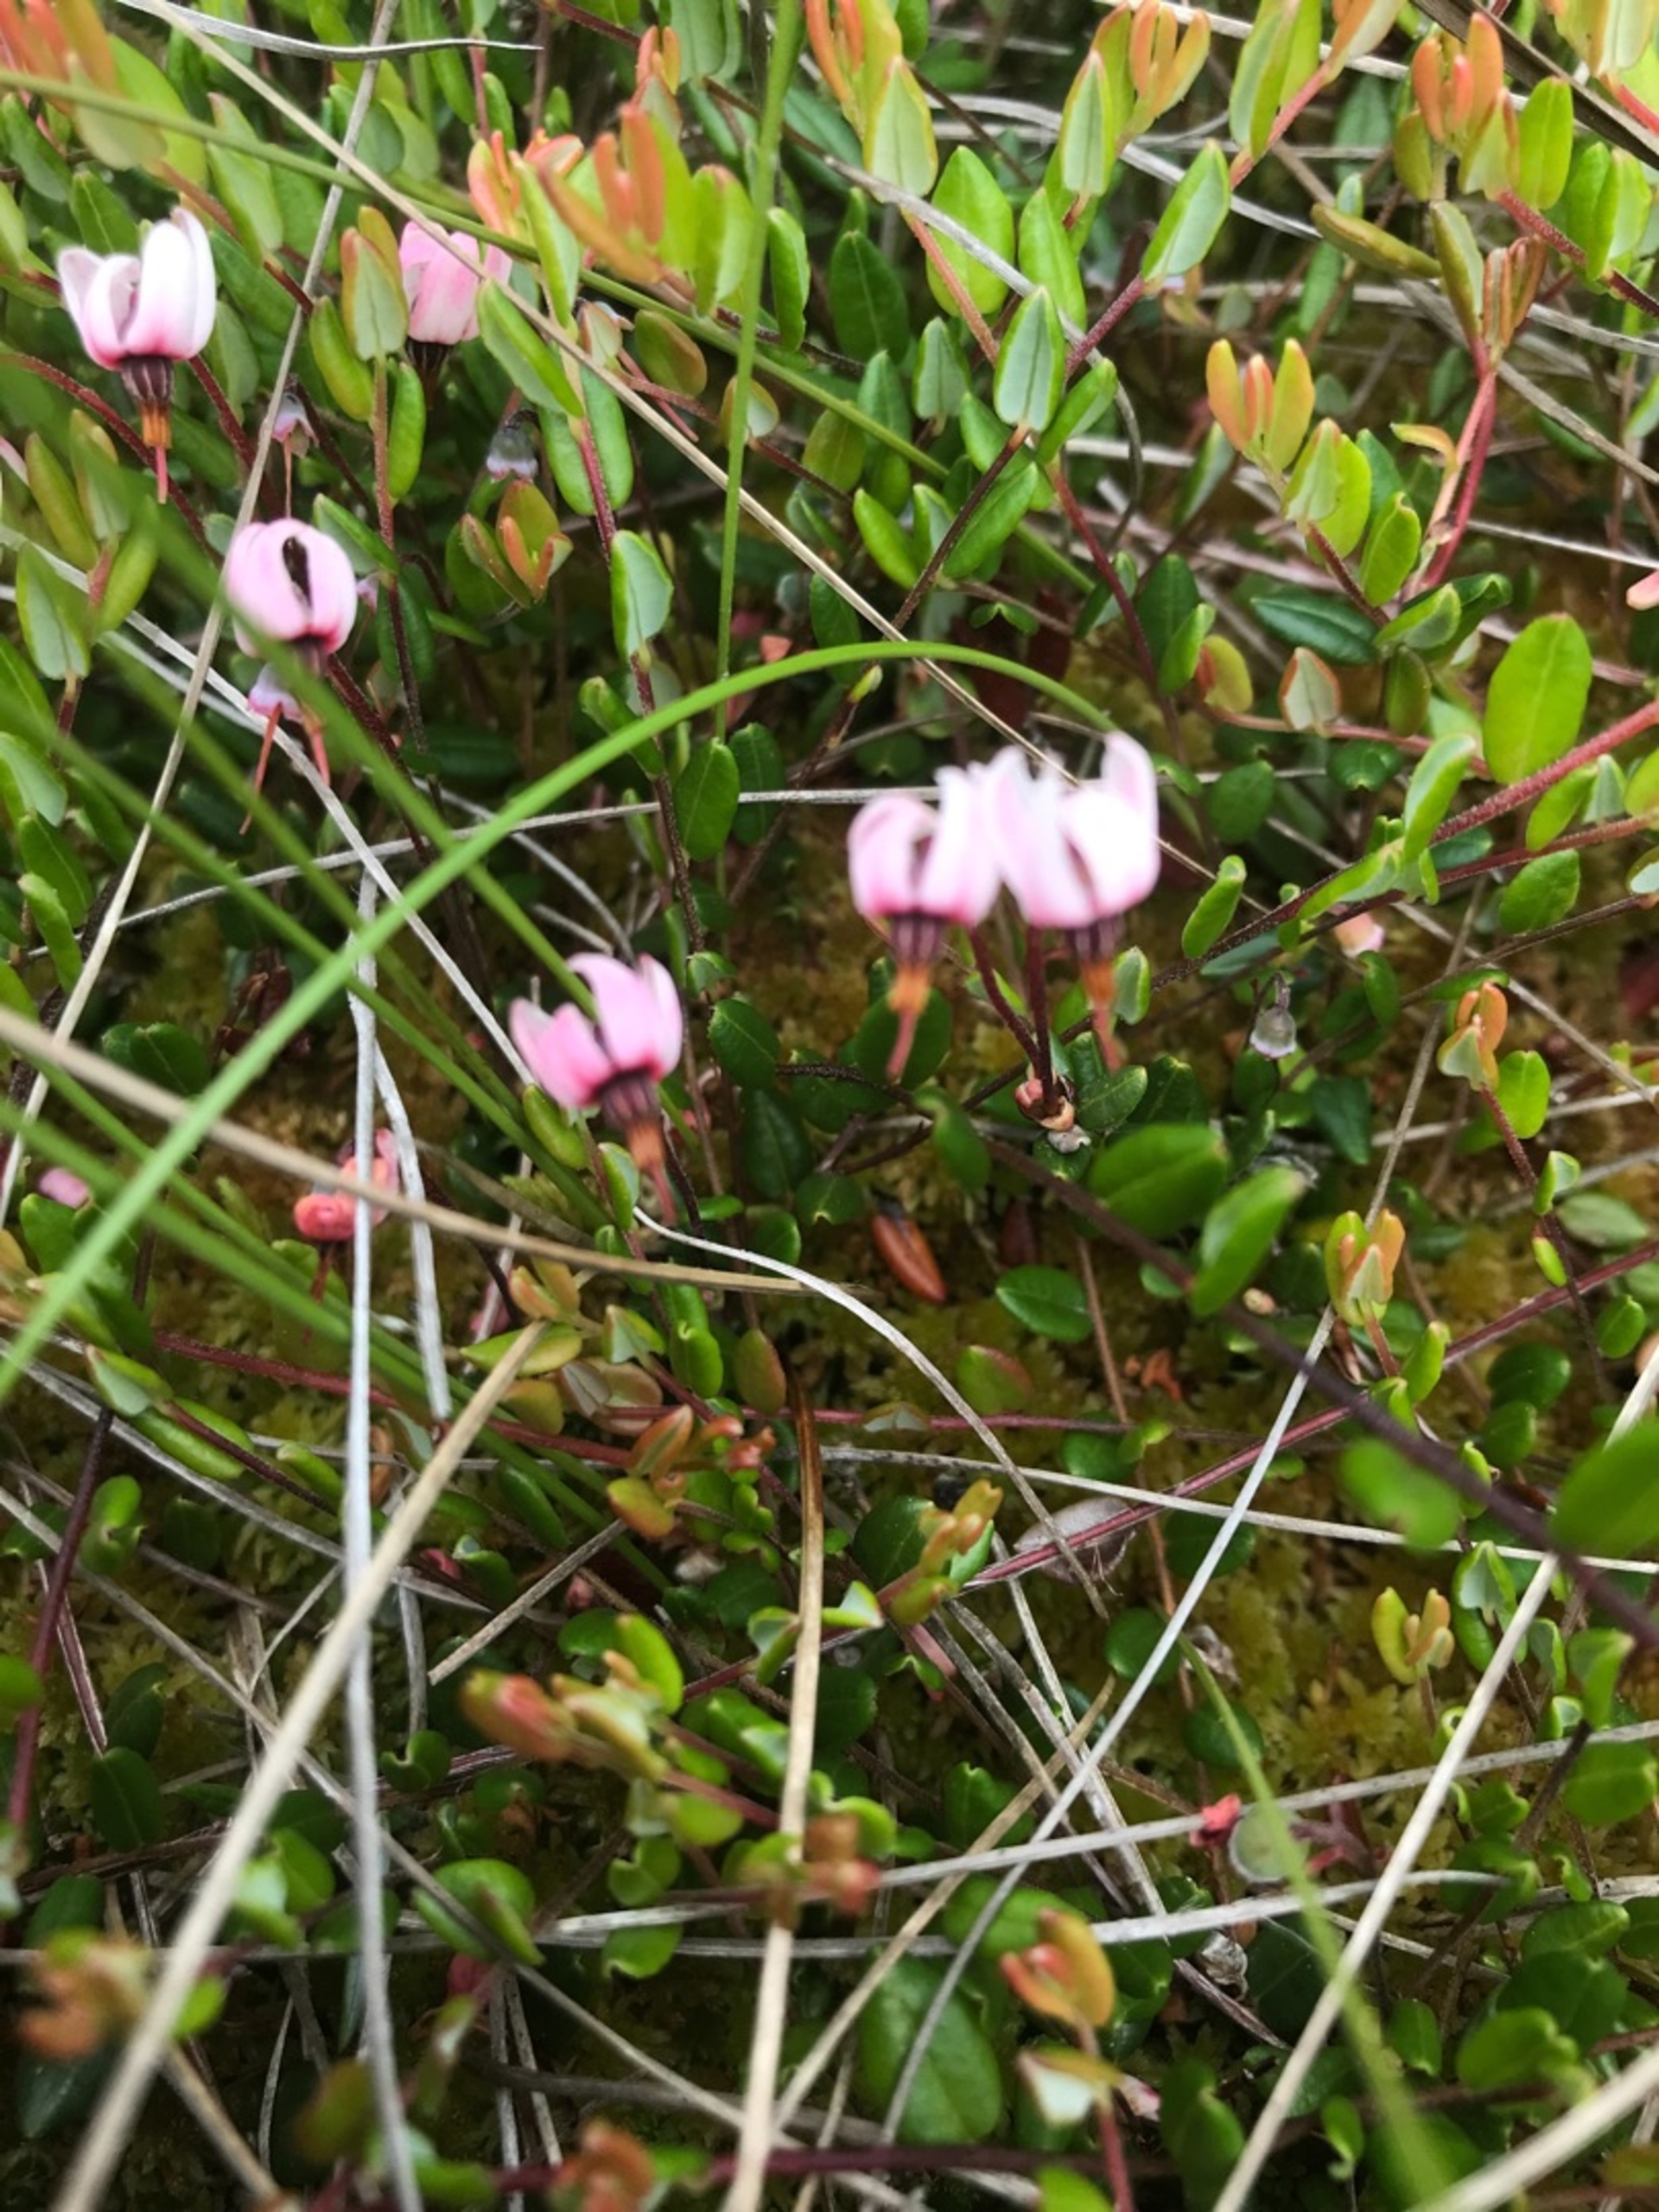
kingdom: Plantae
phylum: Tracheophyta
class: Magnoliopsida
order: Ericales
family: Ericaceae
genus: Vaccinium
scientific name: Vaccinium oxycoccos
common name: Tranebær
